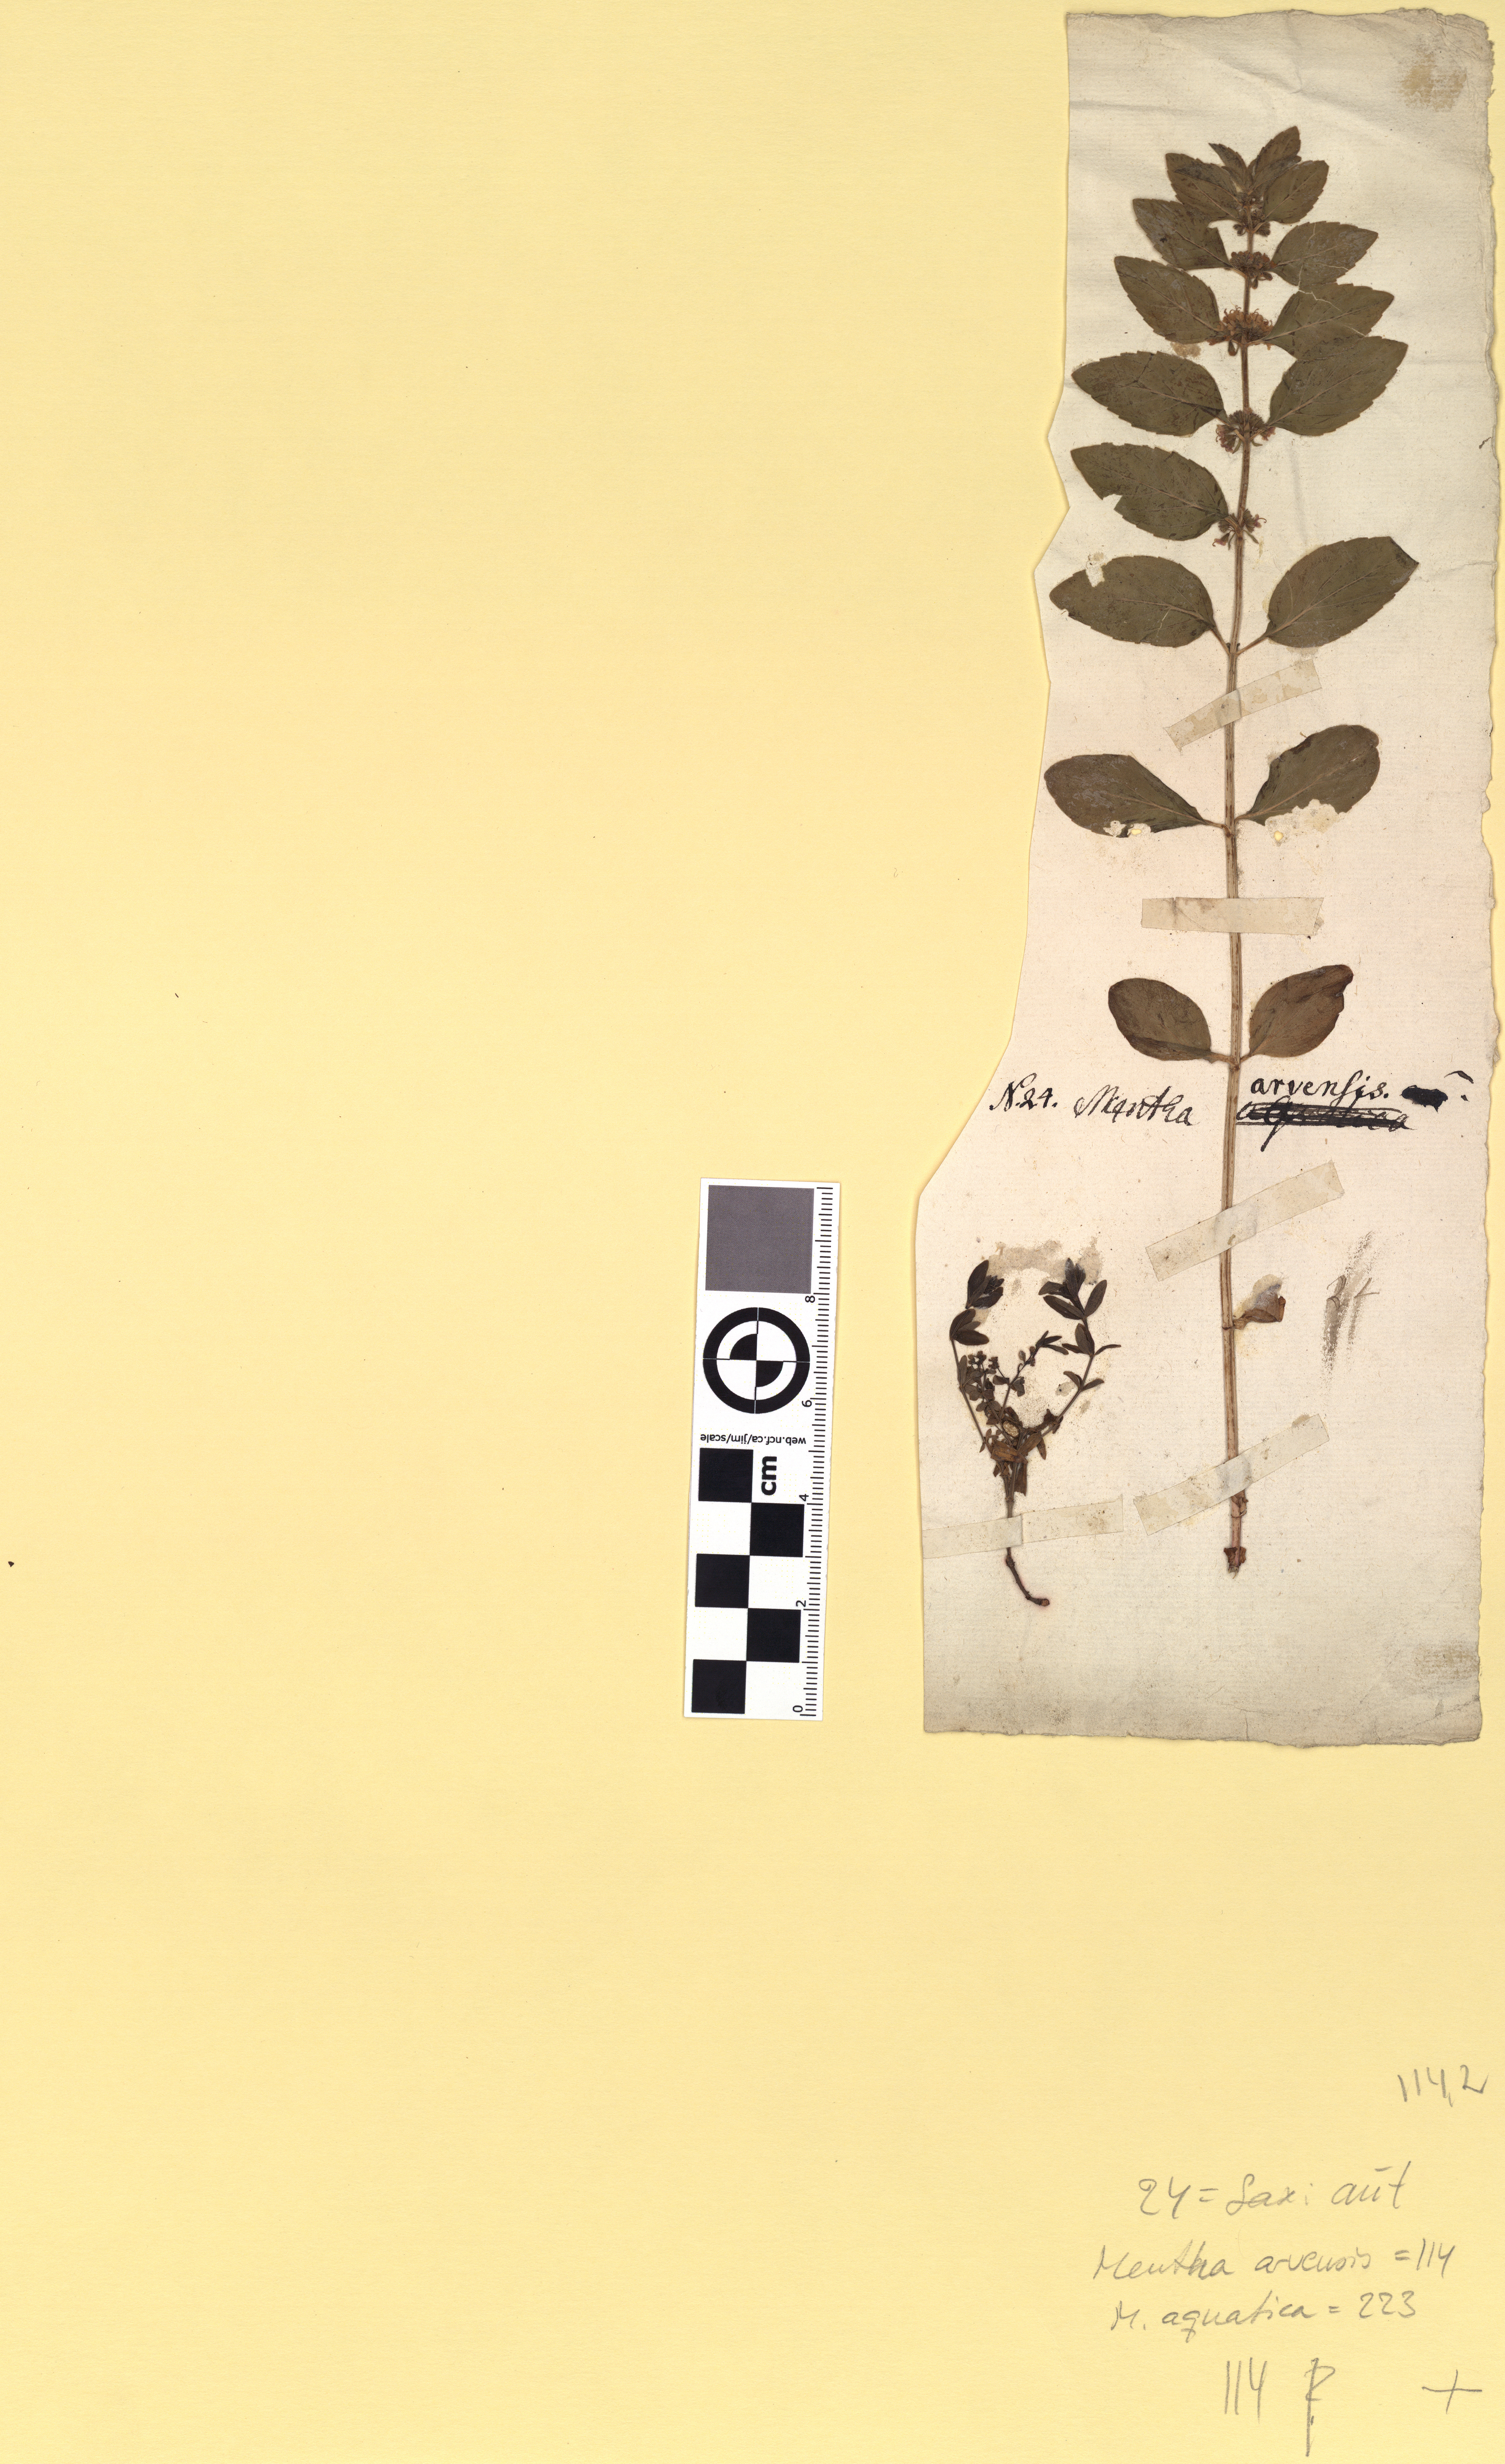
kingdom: Plantae
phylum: Tracheophyta
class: Magnoliopsida
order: Lamiales
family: Lamiaceae
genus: Mentha
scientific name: Mentha arvensis
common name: Corn mint
